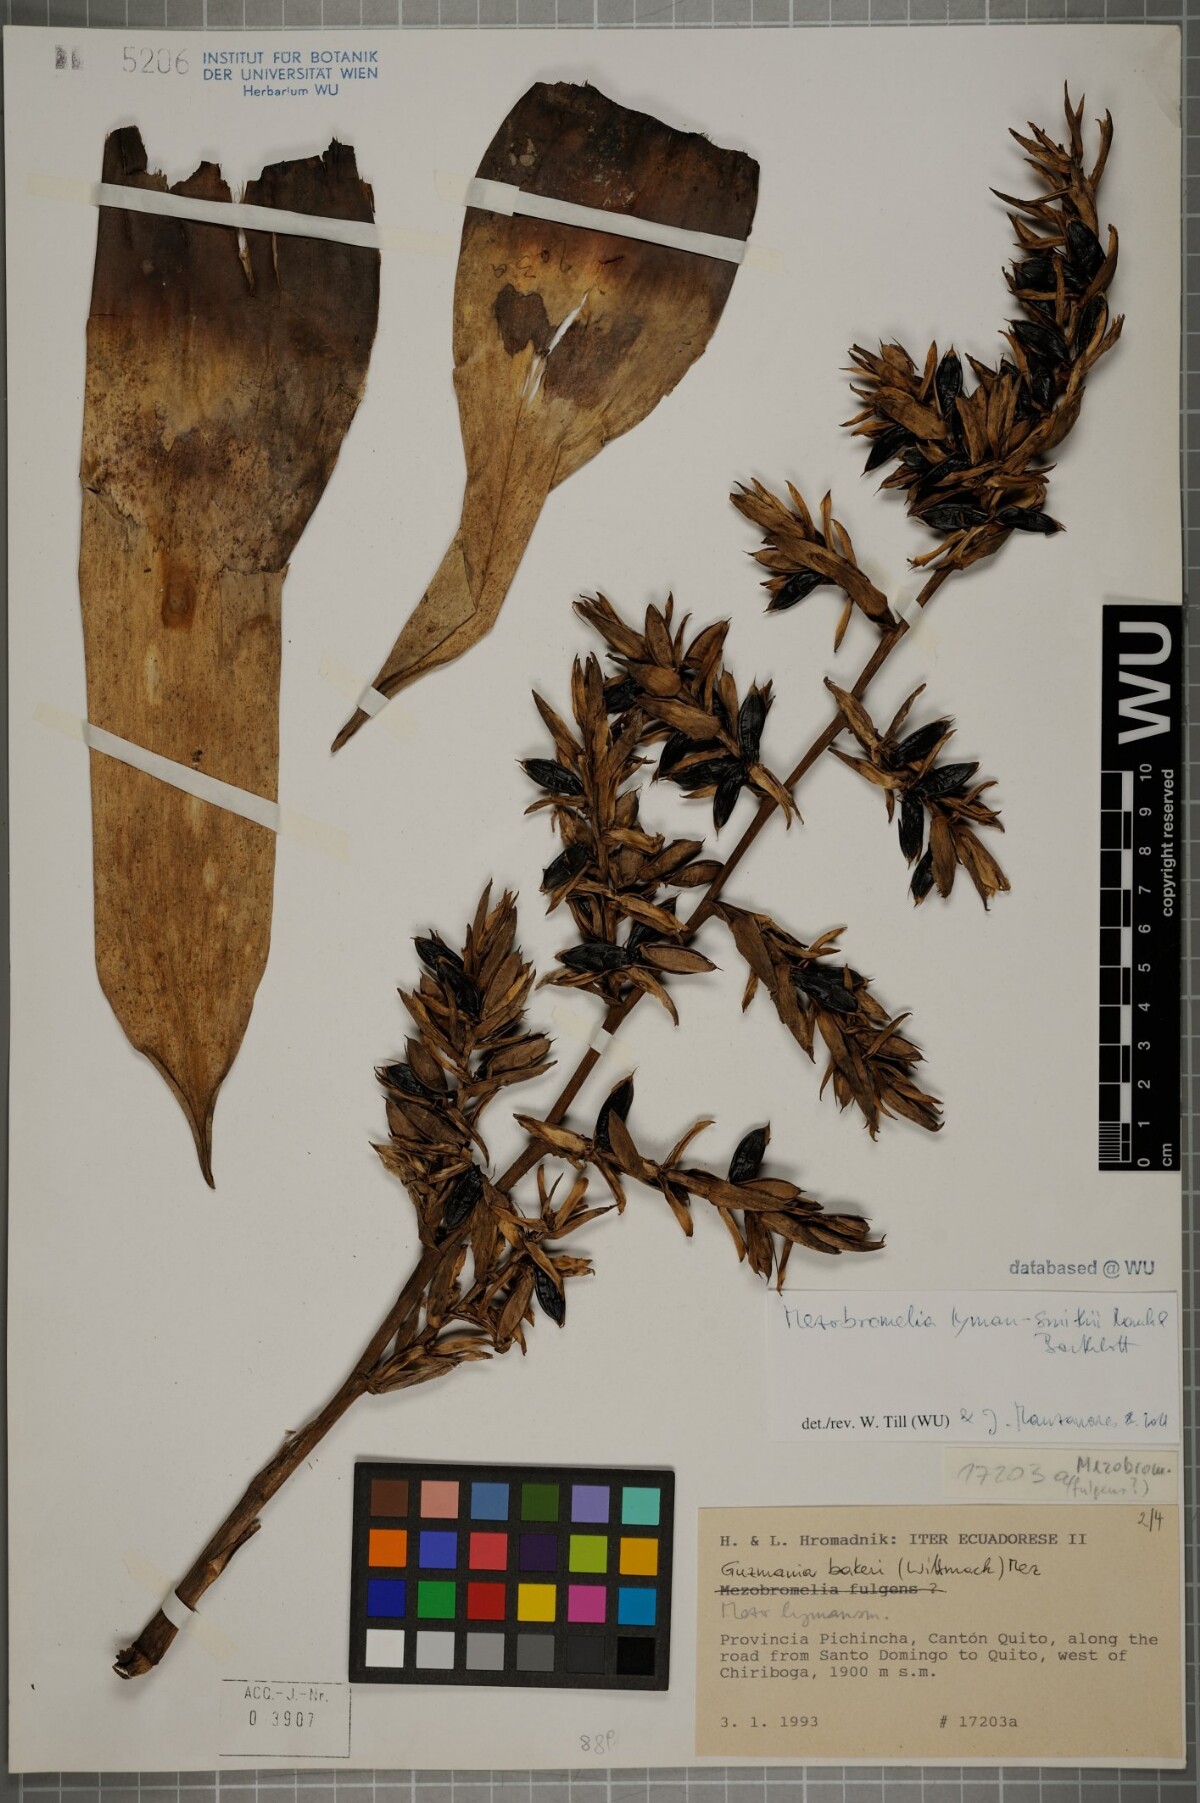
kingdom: Plantae
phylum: Tracheophyta
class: Liliopsida
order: Poales
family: Bromeliaceae
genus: Gregbrownia
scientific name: Gregbrownia lyman-smithii
